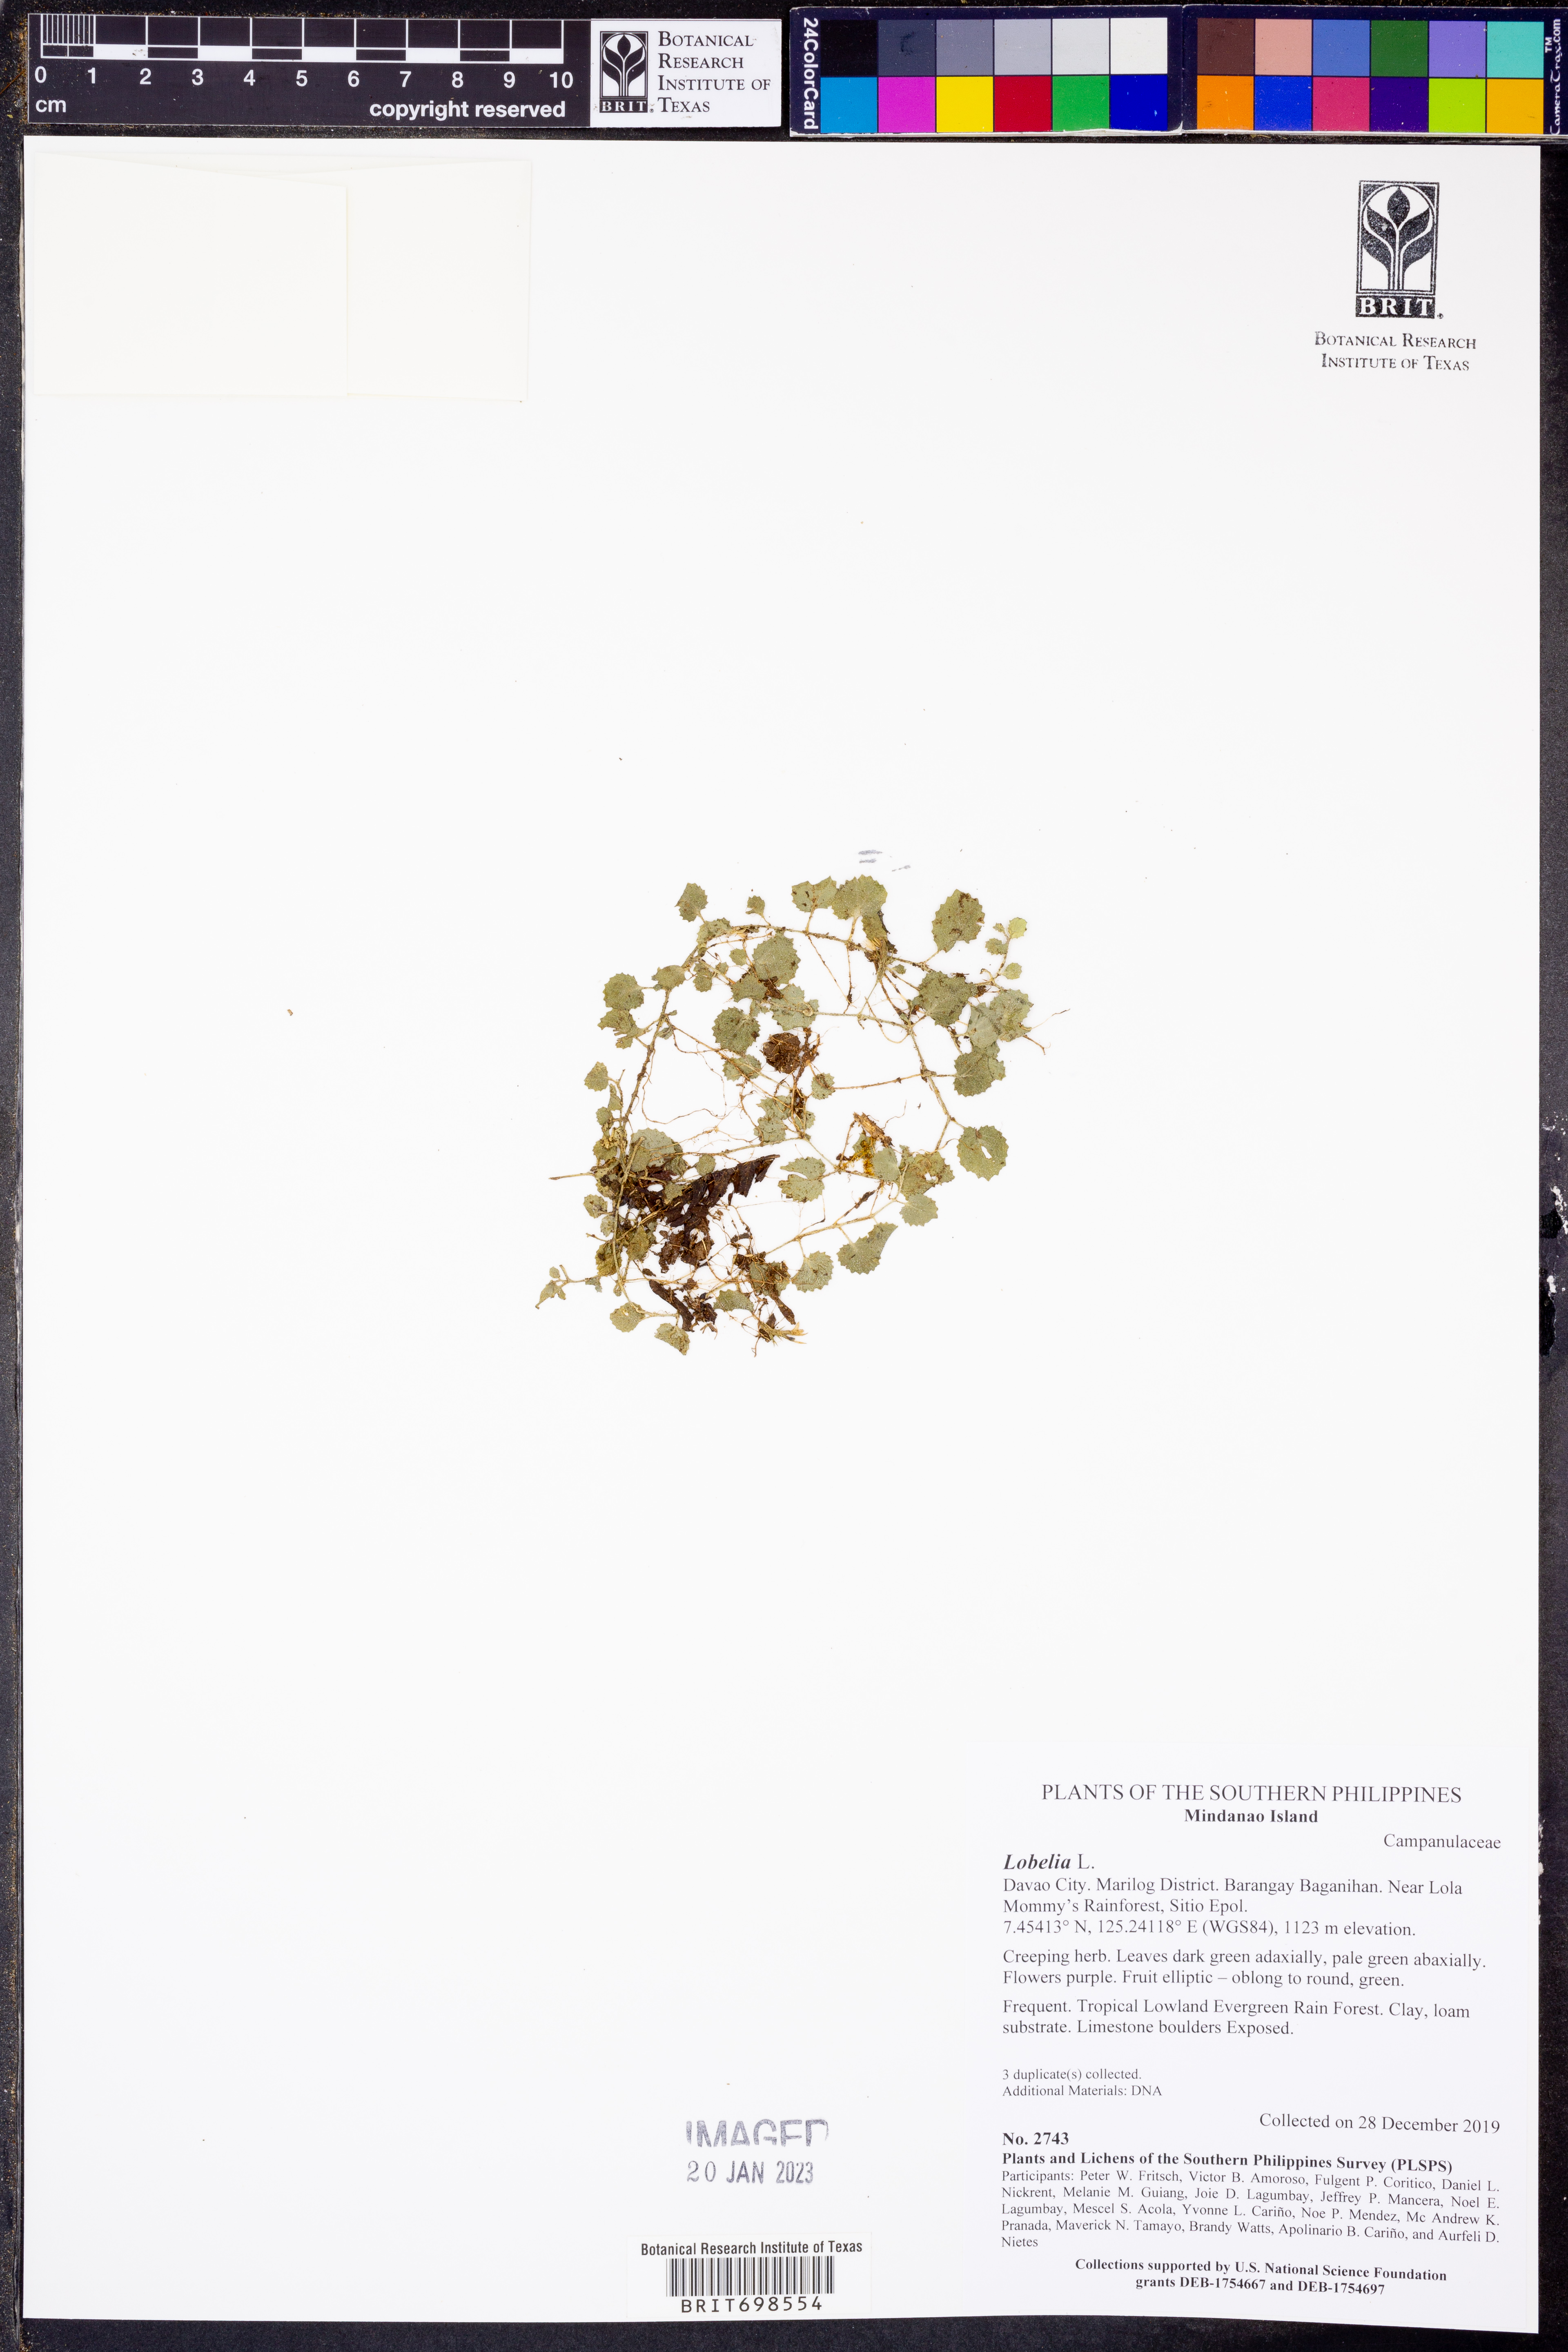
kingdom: Plantae
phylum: Tracheophyta
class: Magnoliopsida
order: Asterales
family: Campanulaceae
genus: Lobelia
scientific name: Lobelia
